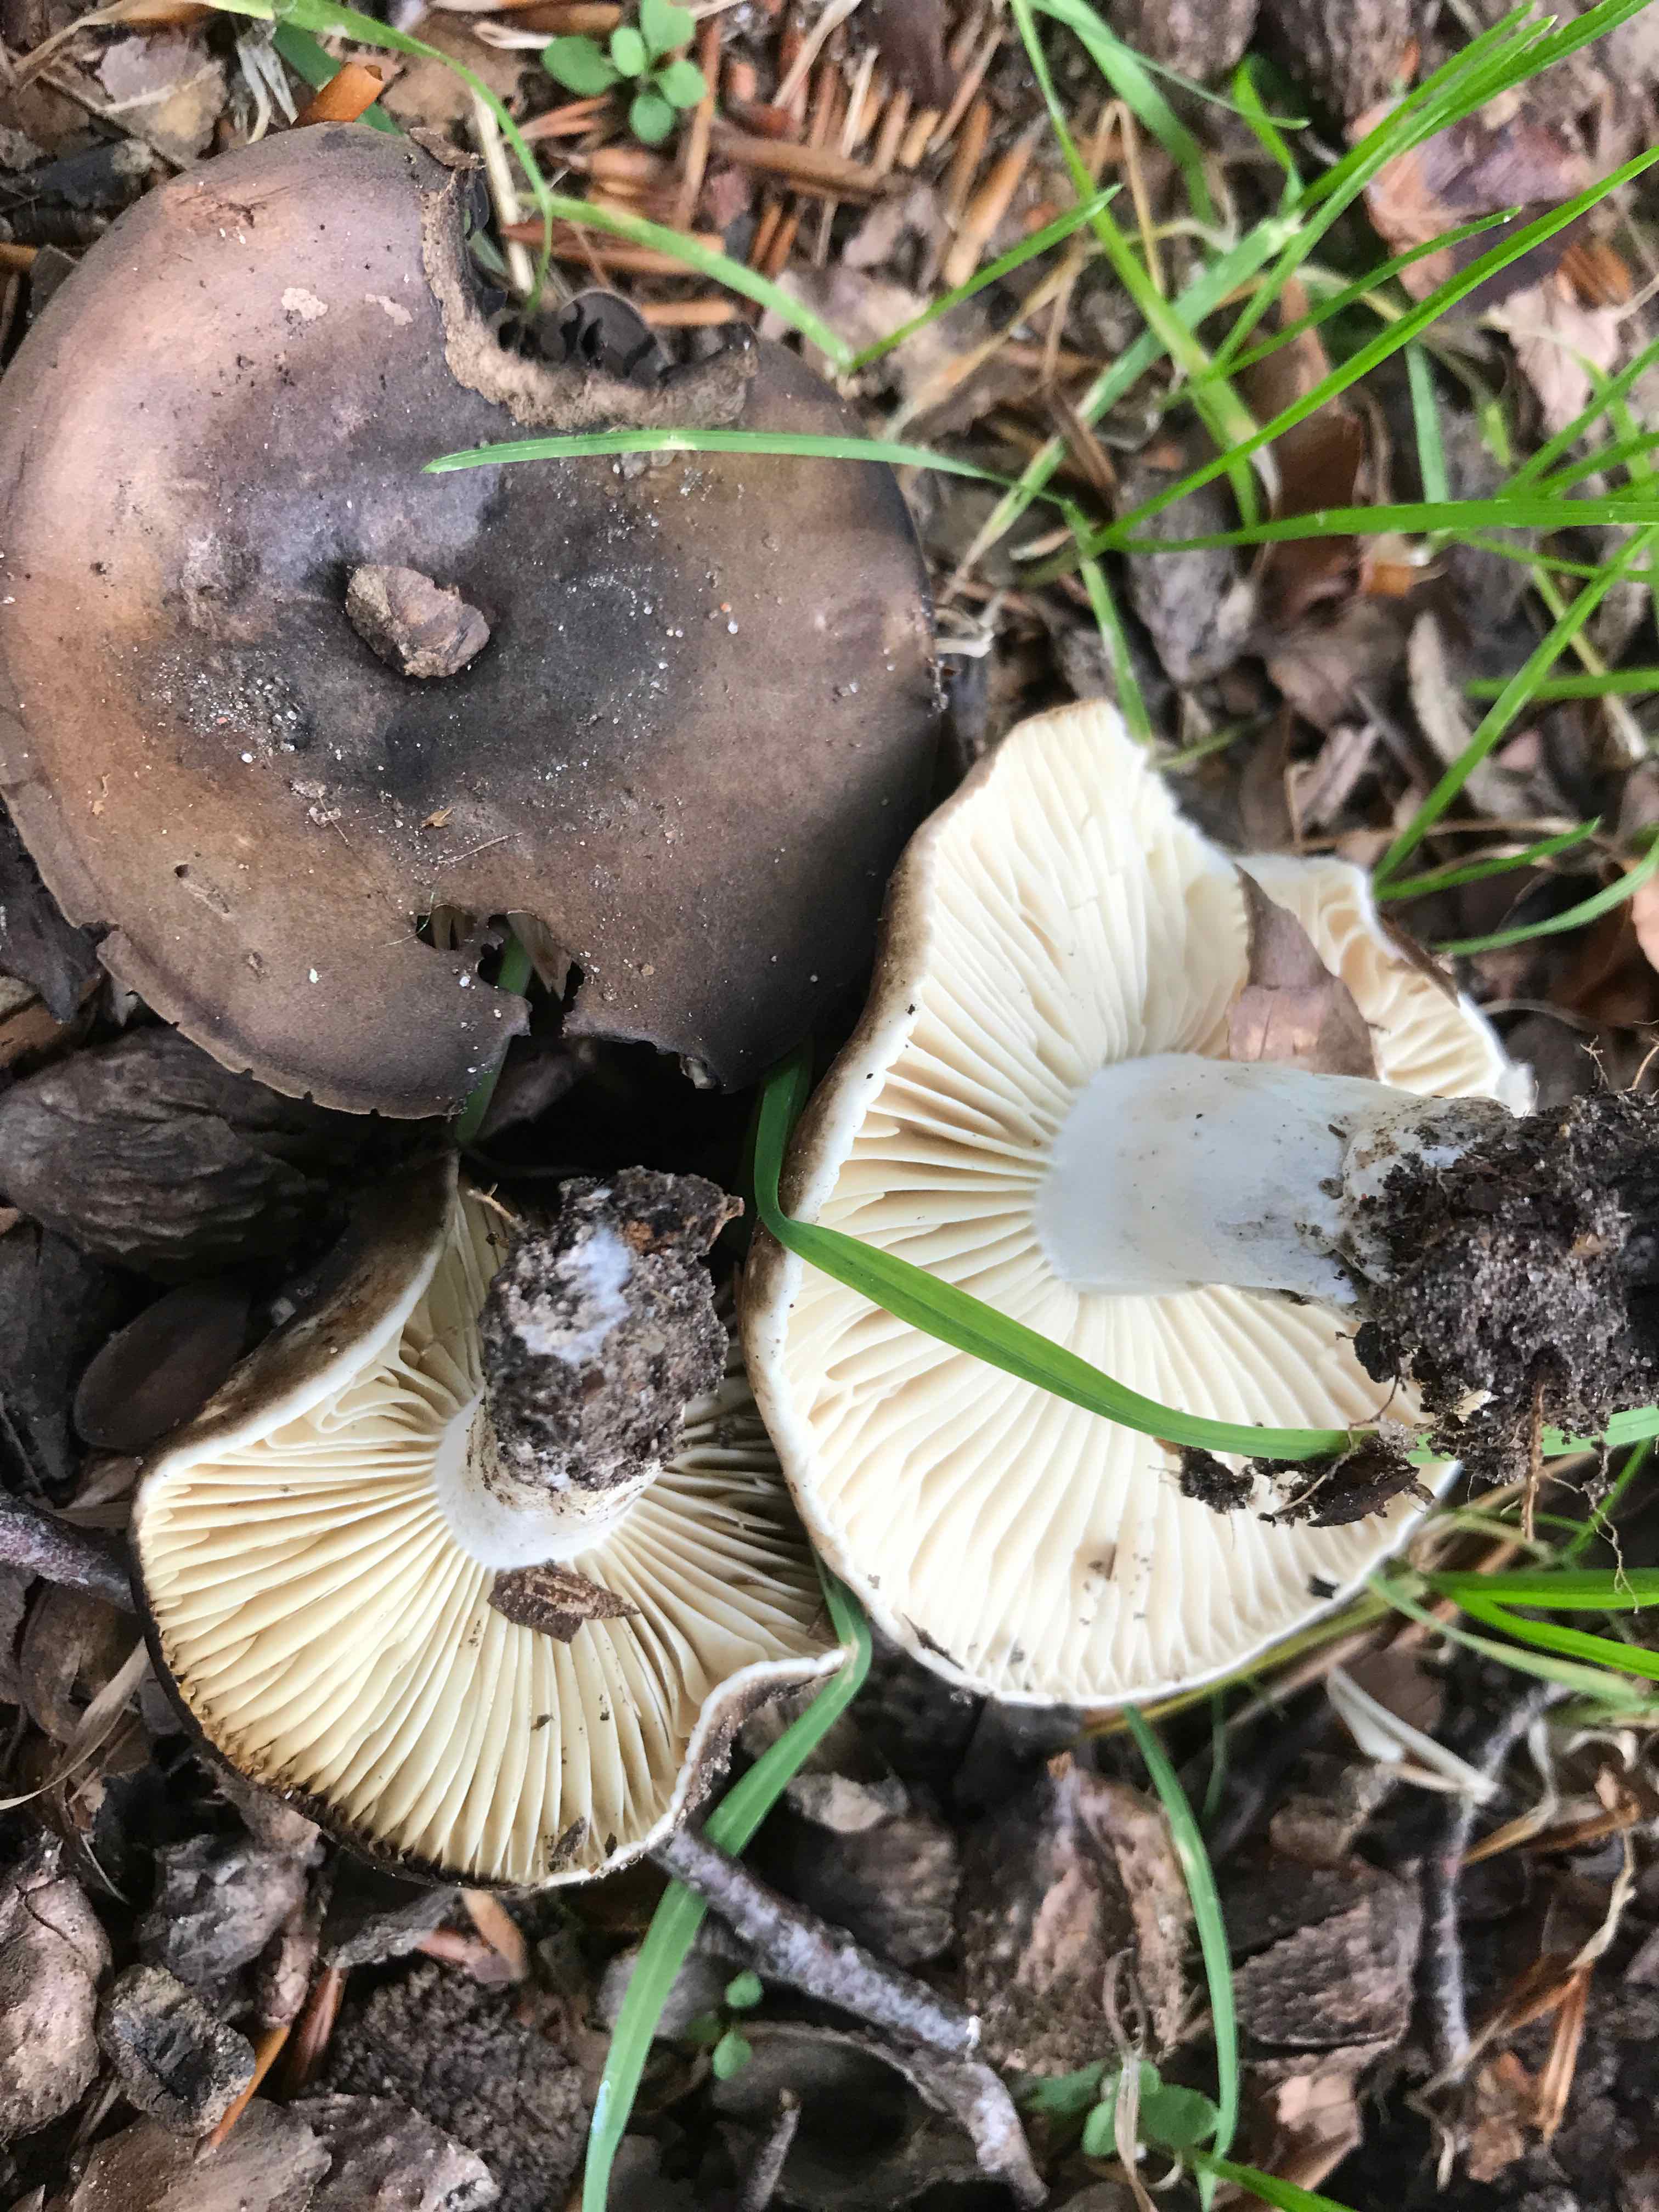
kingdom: Fungi
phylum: Basidiomycota
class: Agaricomycetes
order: Russulales
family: Russulaceae
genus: Russula
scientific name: Russula adusta
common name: sværtende skørhat
